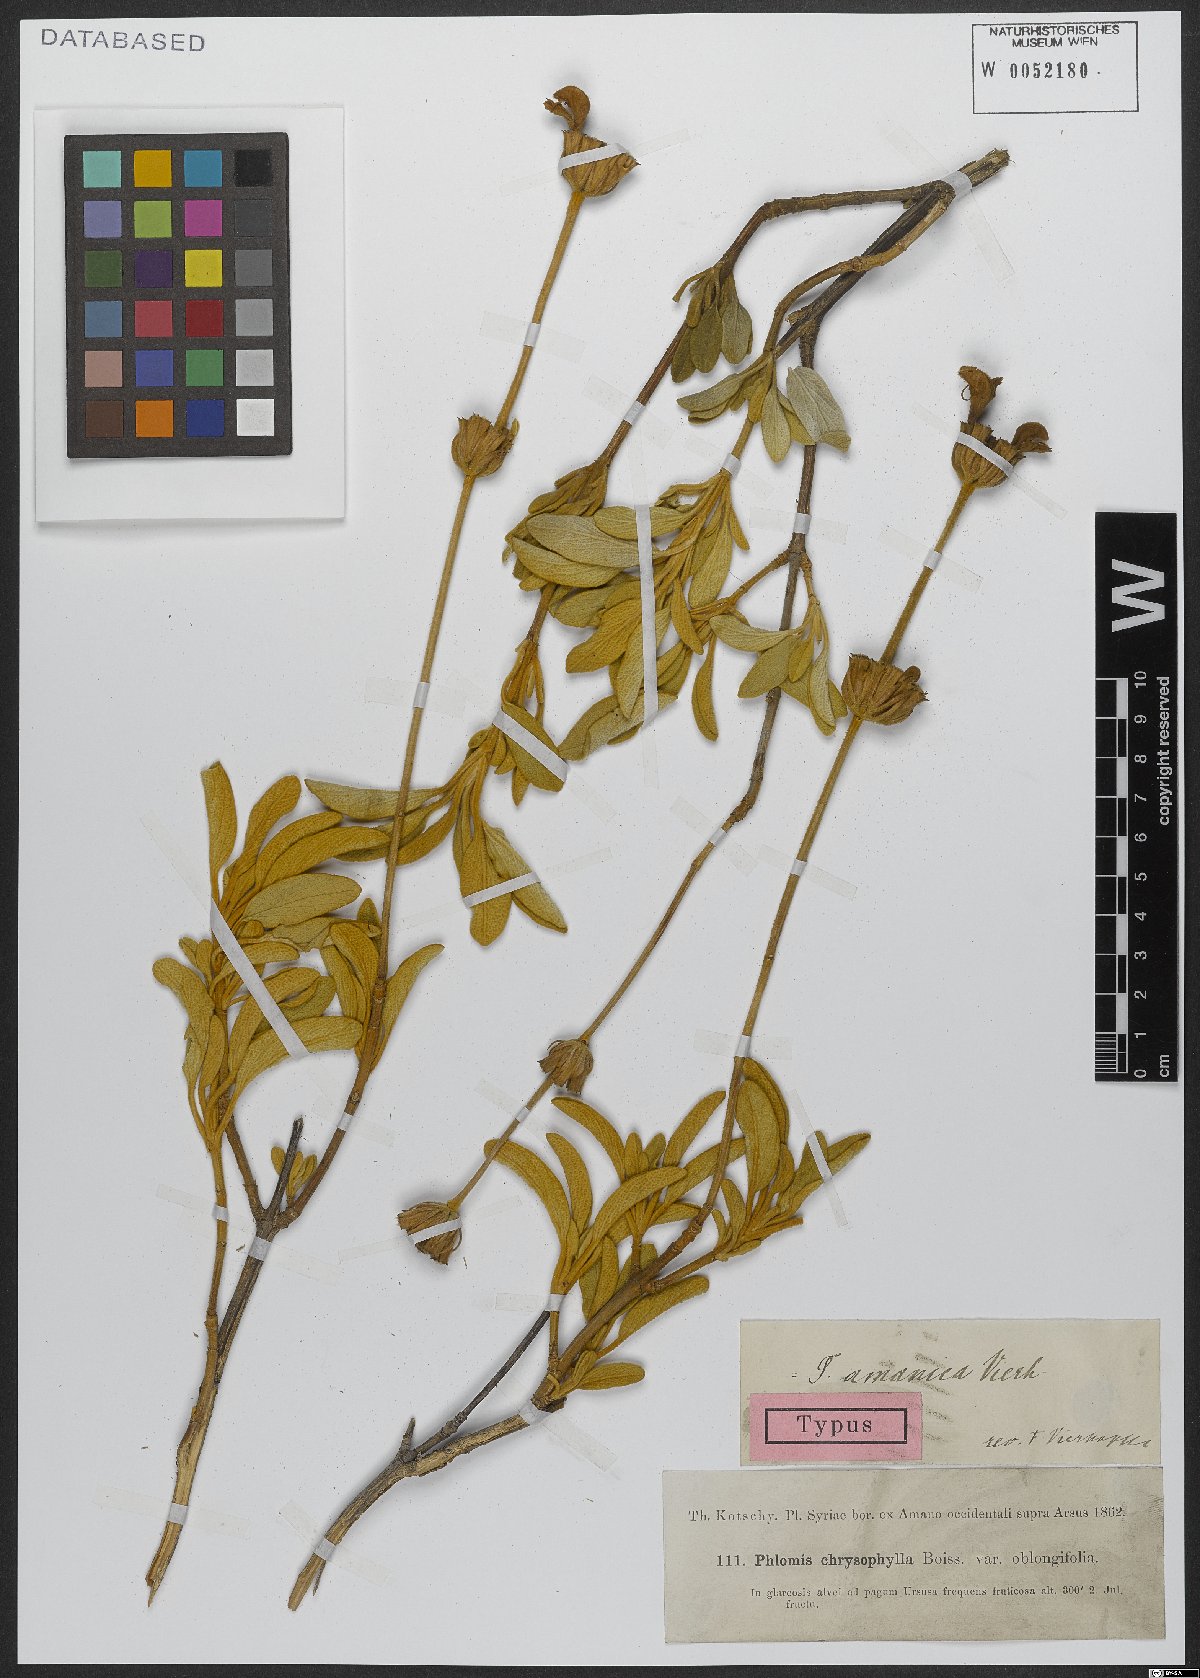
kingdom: Plantae
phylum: Tracheophyta
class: Magnoliopsida
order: Lamiales
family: Lamiaceae
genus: Phlomis
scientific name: Phlomis amanica
